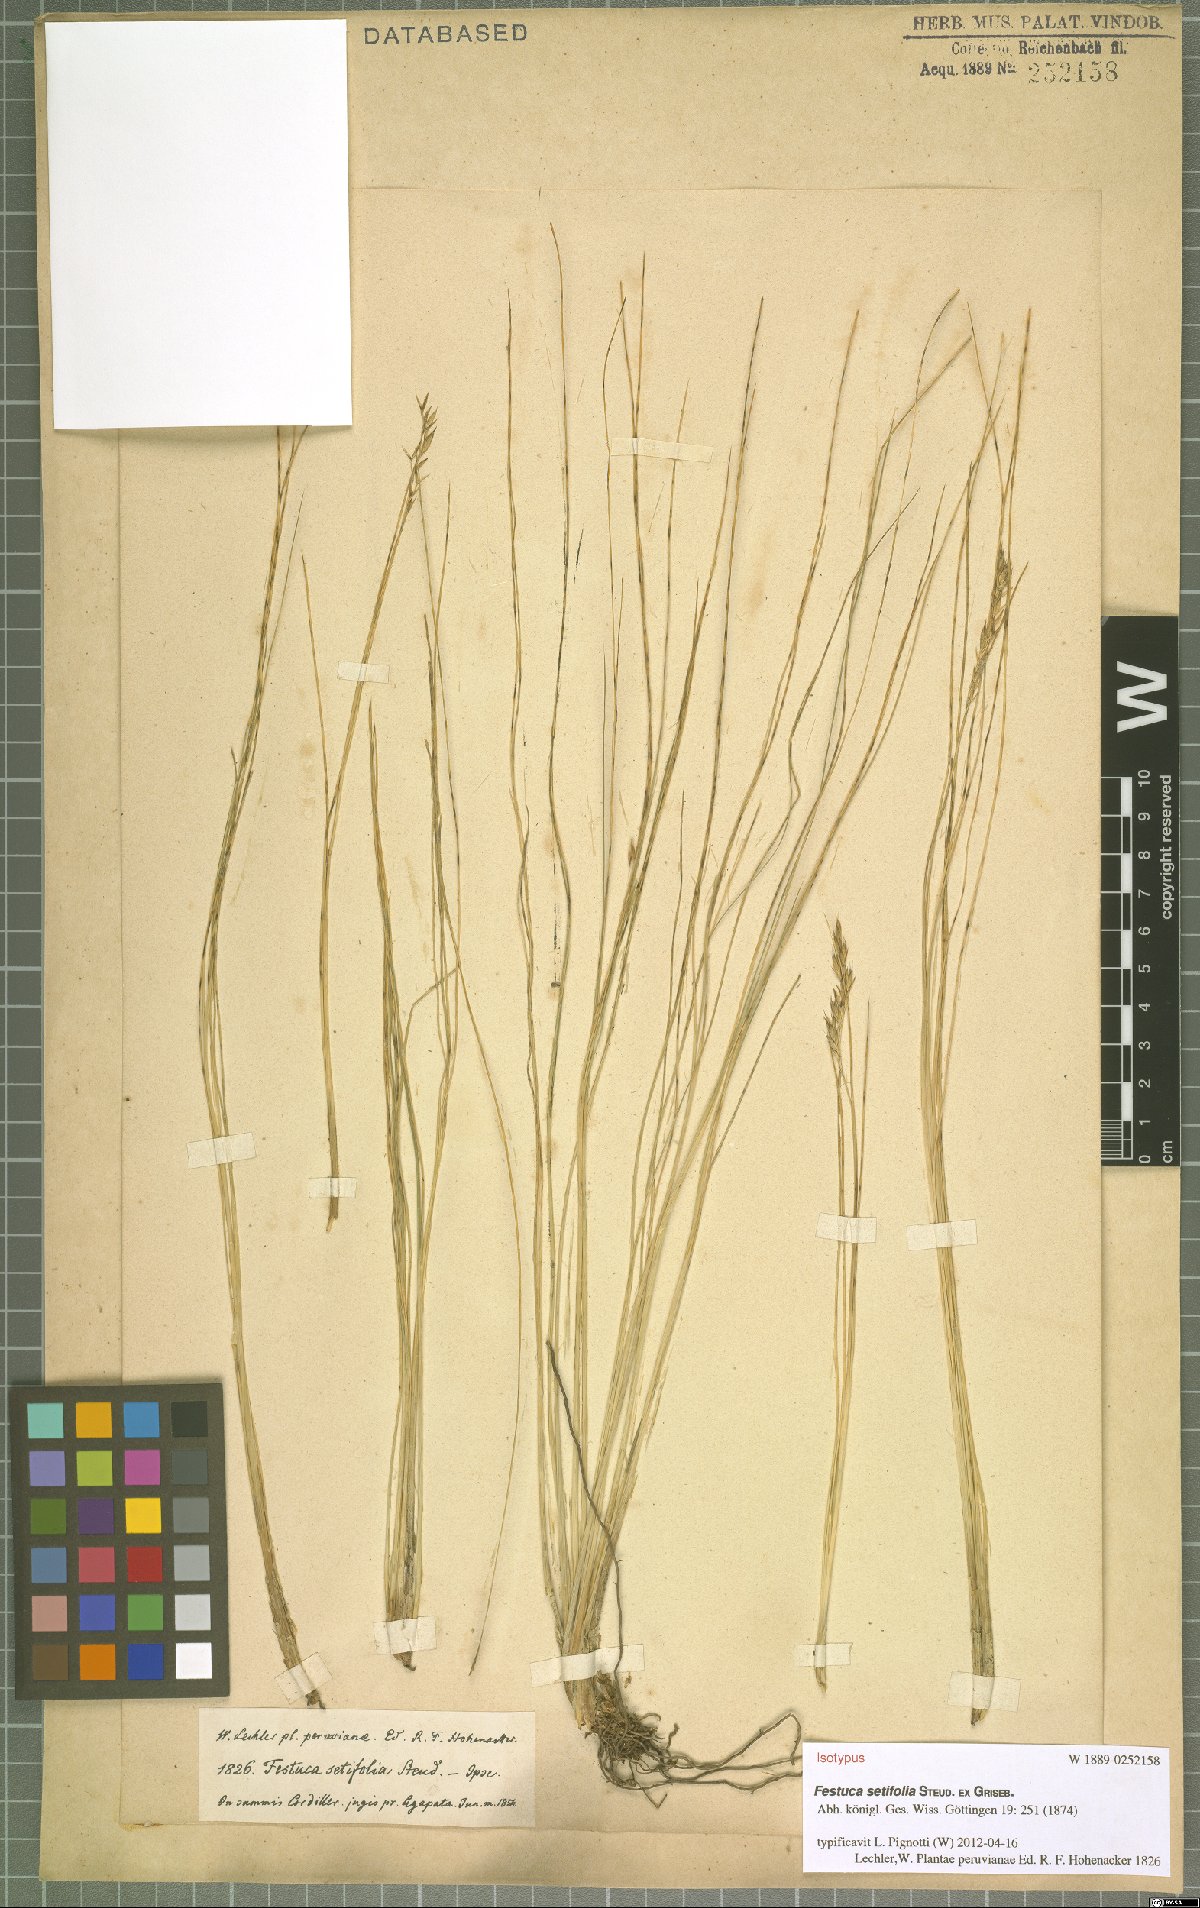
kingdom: Plantae
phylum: Tracheophyta
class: Liliopsida
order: Poales
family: Poaceae
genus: Festuca
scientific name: Festuca setifolia
